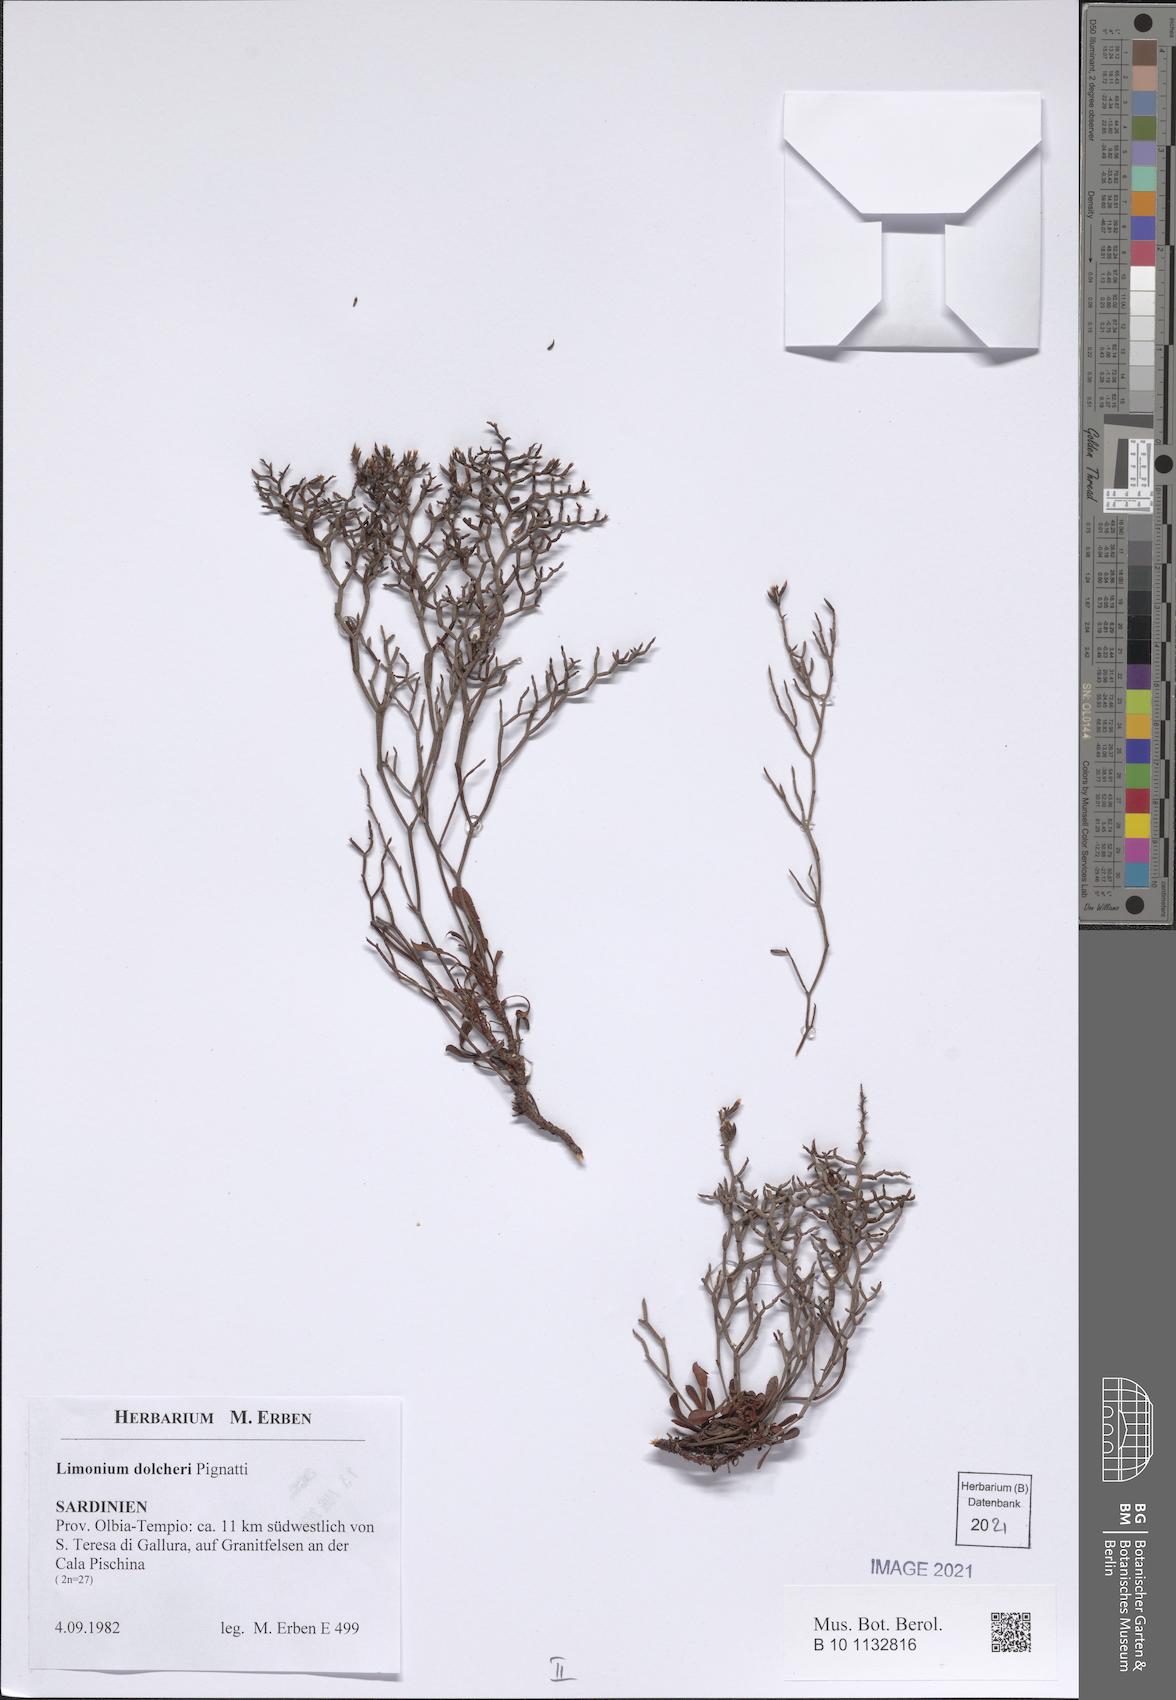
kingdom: Plantae
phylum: Tracheophyta
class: Magnoliopsida
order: Caryophyllales
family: Plumbaginaceae
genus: Limonium
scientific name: Limonium dolcheri
